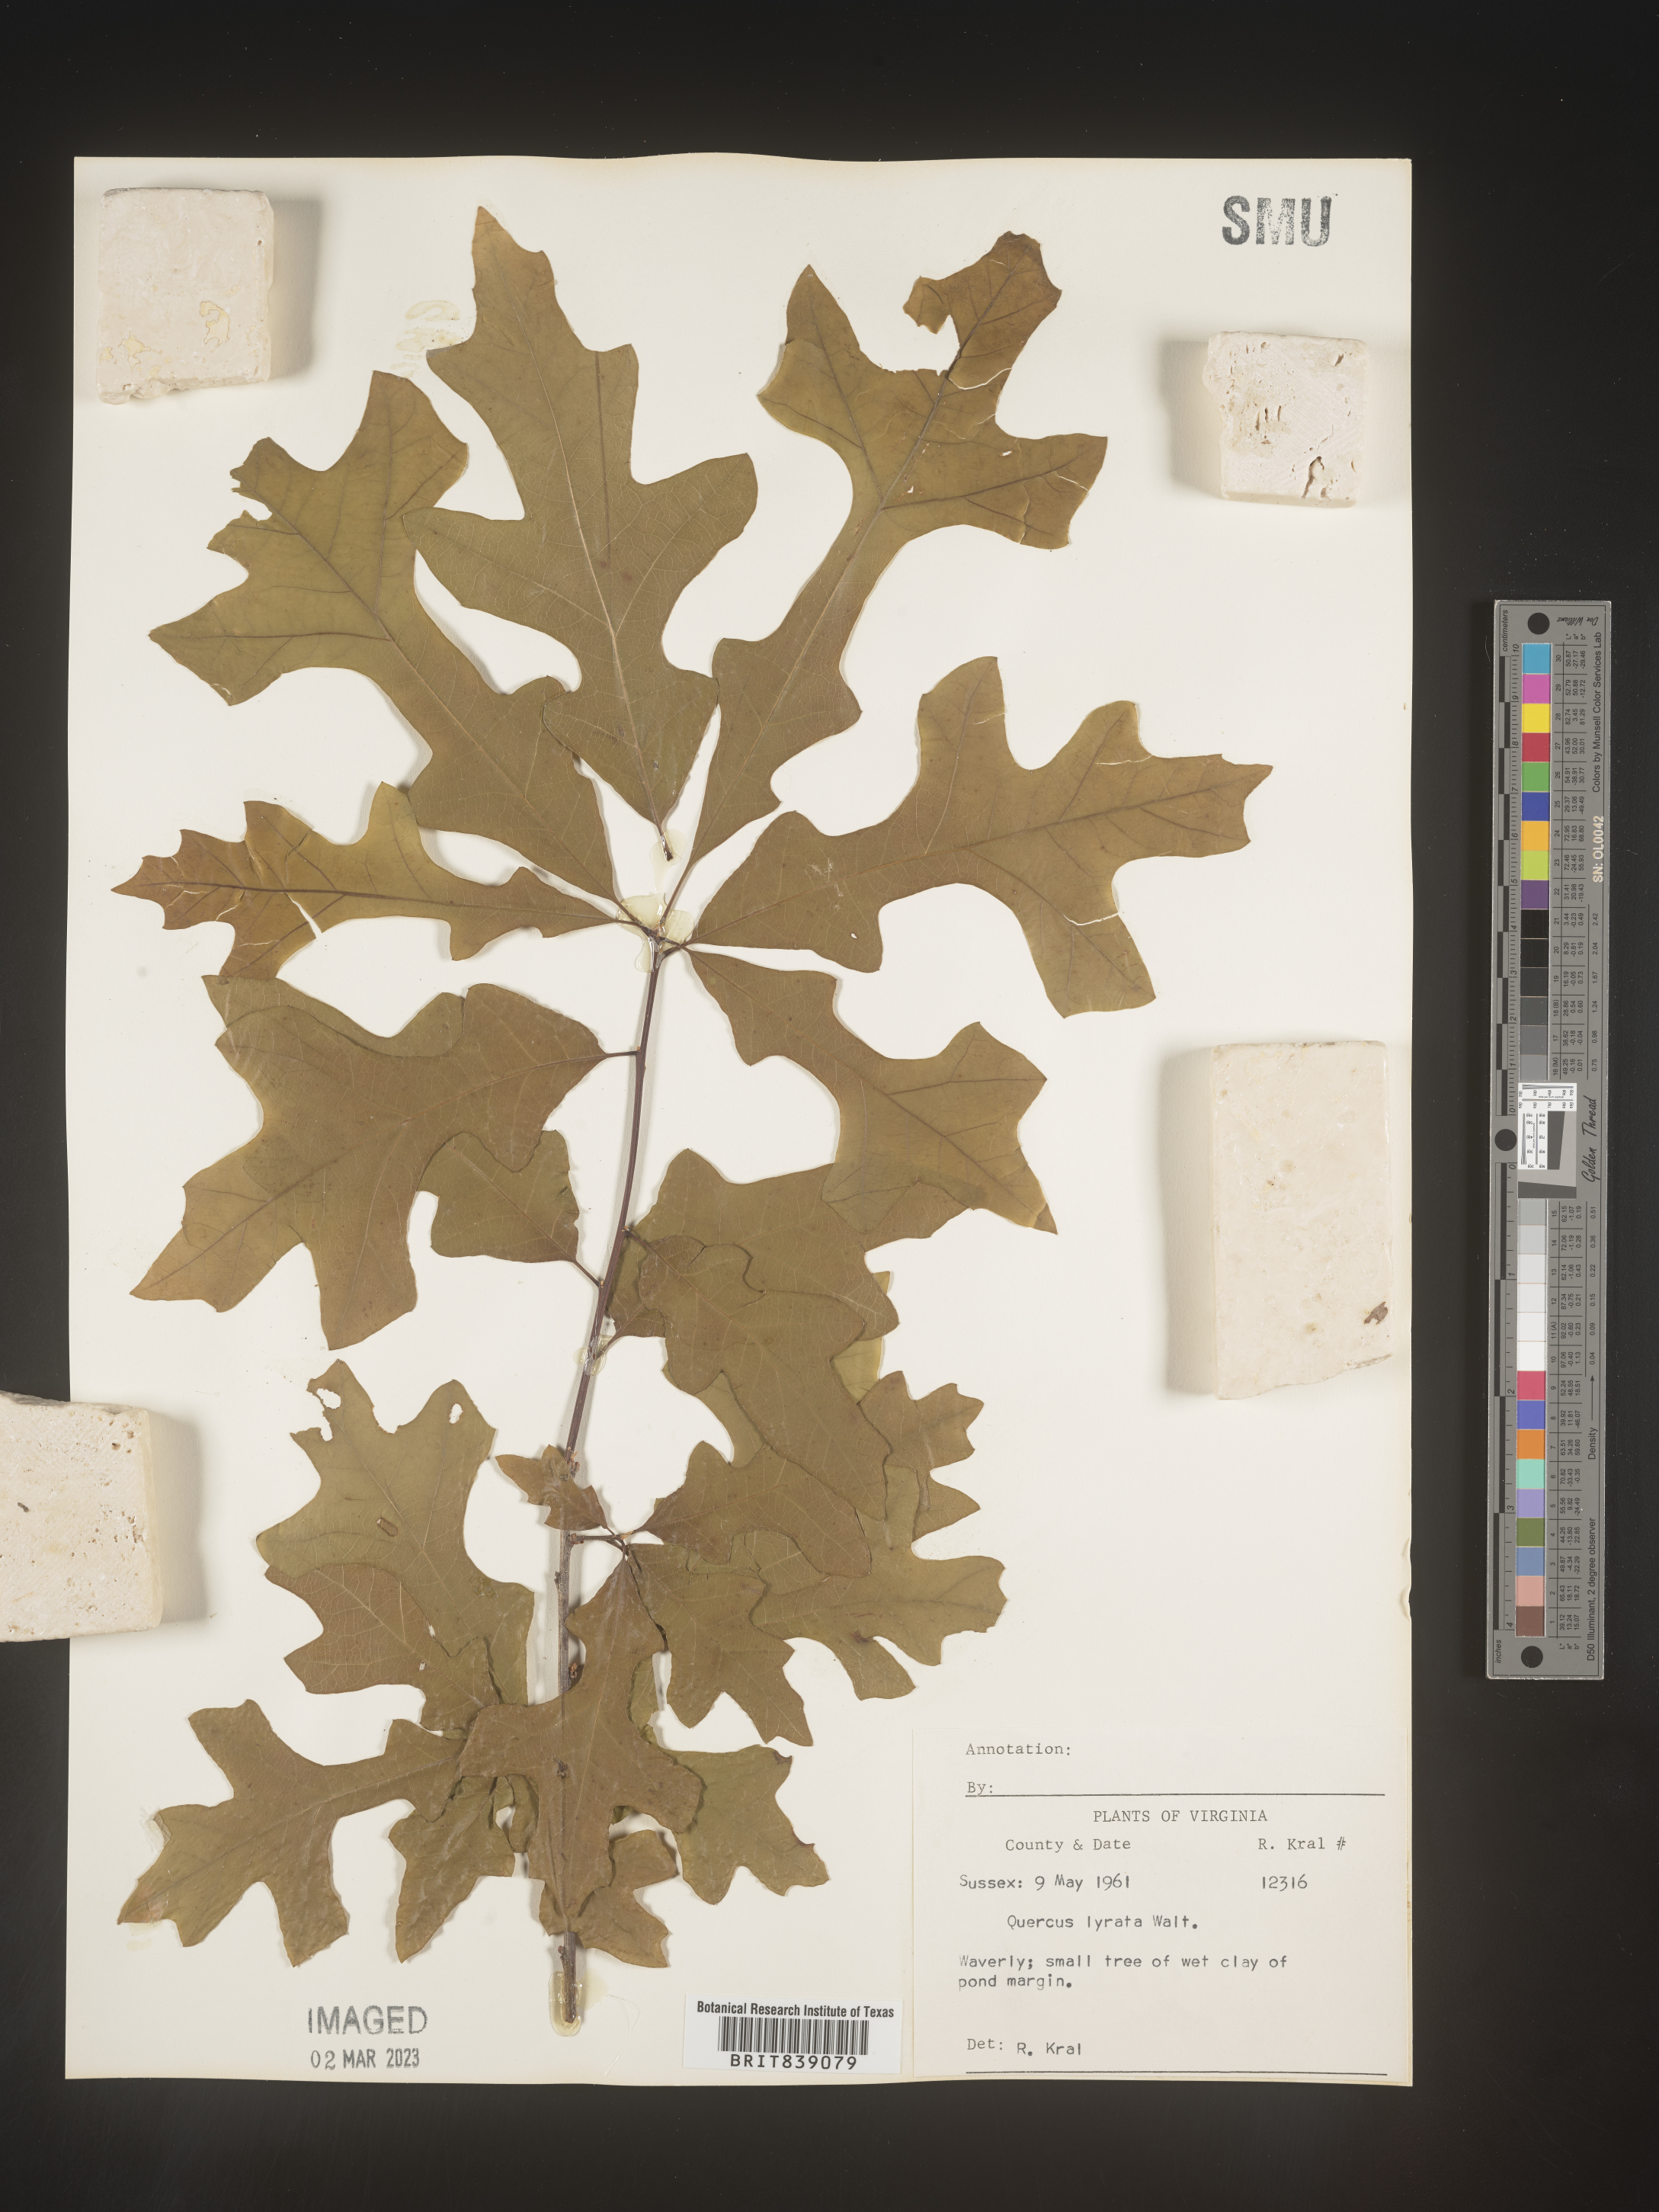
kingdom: Plantae
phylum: Tracheophyta
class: Magnoliopsida
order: Fagales
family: Fagaceae
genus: Quercus
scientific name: Quercus lyrata
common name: Overcup oak
